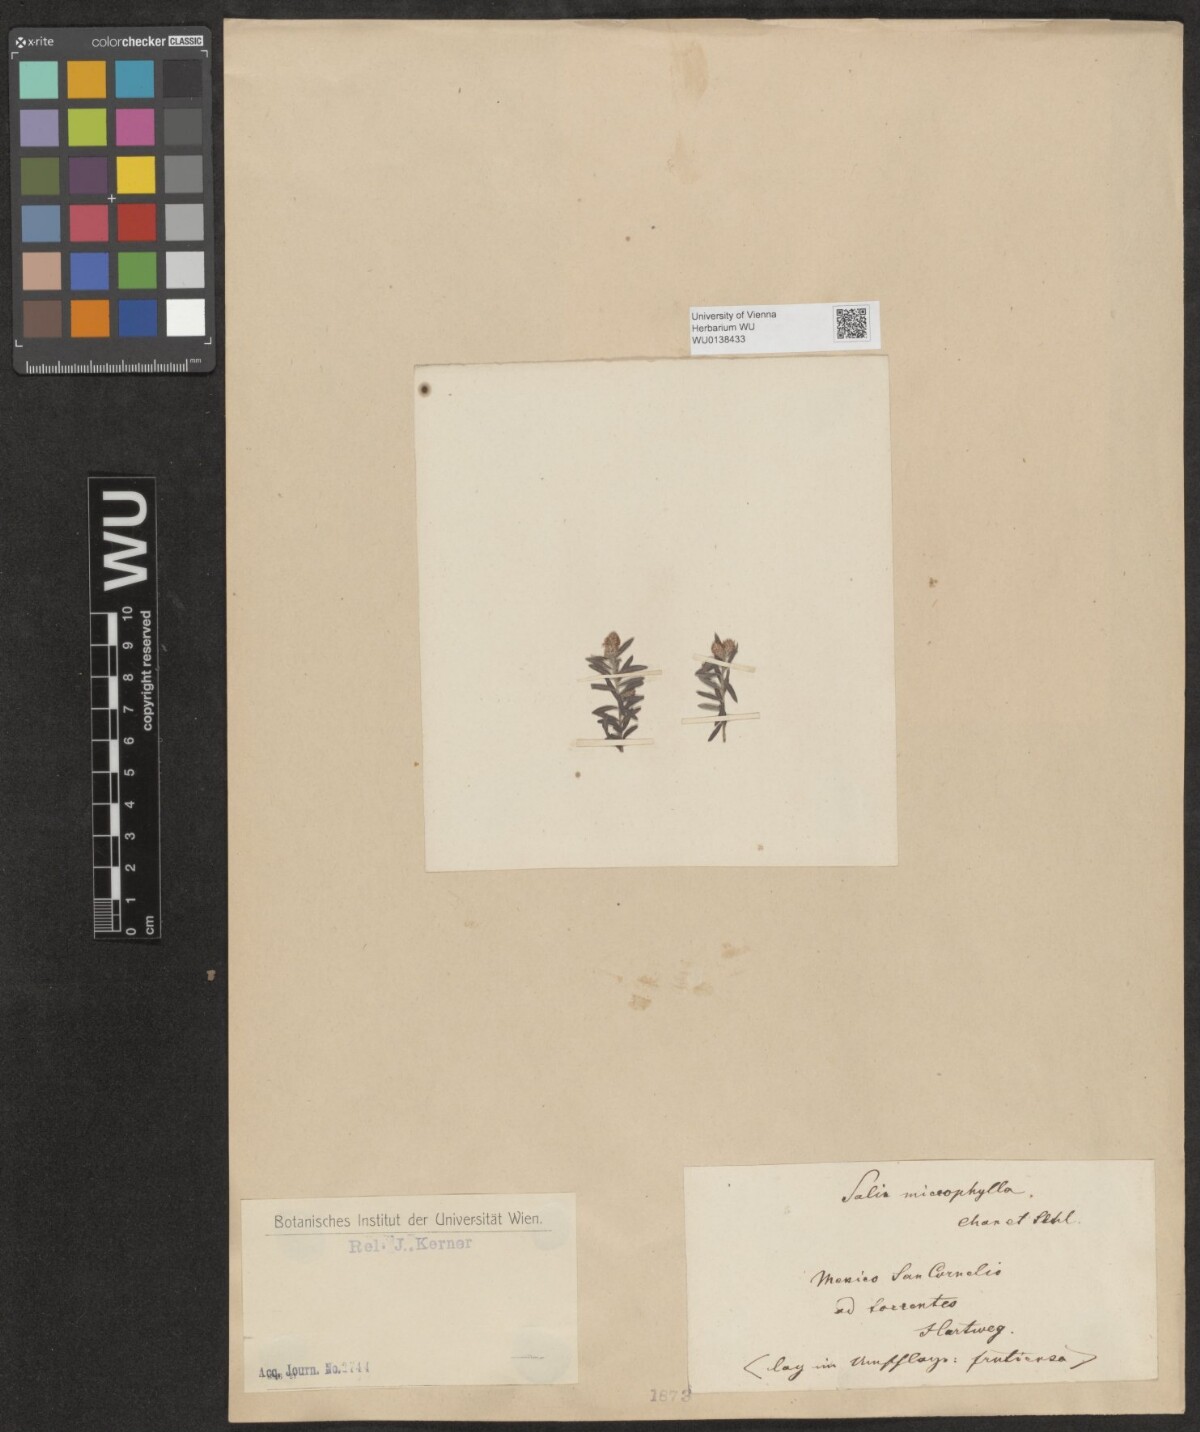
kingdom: Plantae
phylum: Tracheophyta
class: Magnoliopsida
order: Malpighiales
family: Salicaceae
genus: Salix
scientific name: Salix taxifolia
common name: Yew-leaf willow
